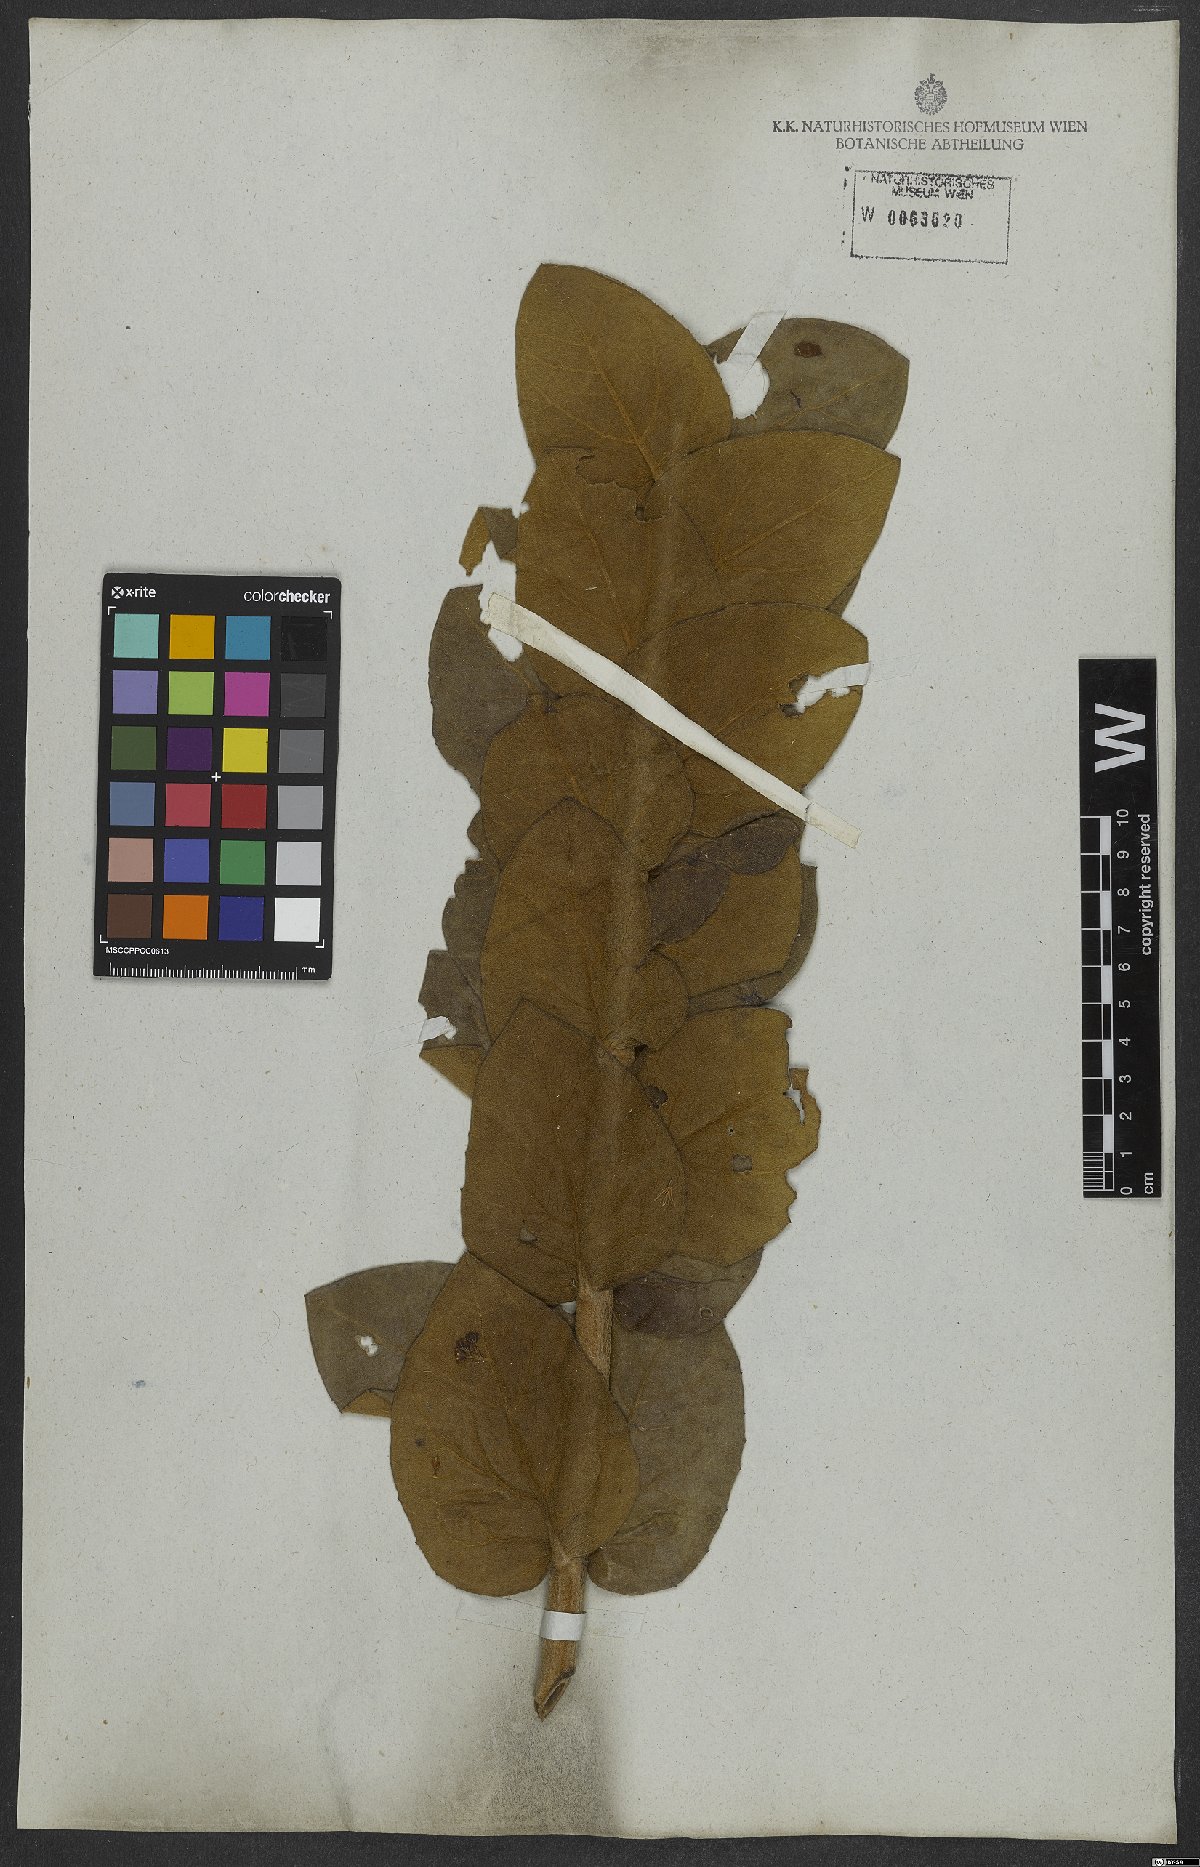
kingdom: Plantae
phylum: Tracheophyta
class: Magnoliopsida
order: Asterales
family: Asteraceae
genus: Mikania
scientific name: Mikania leiolaena
